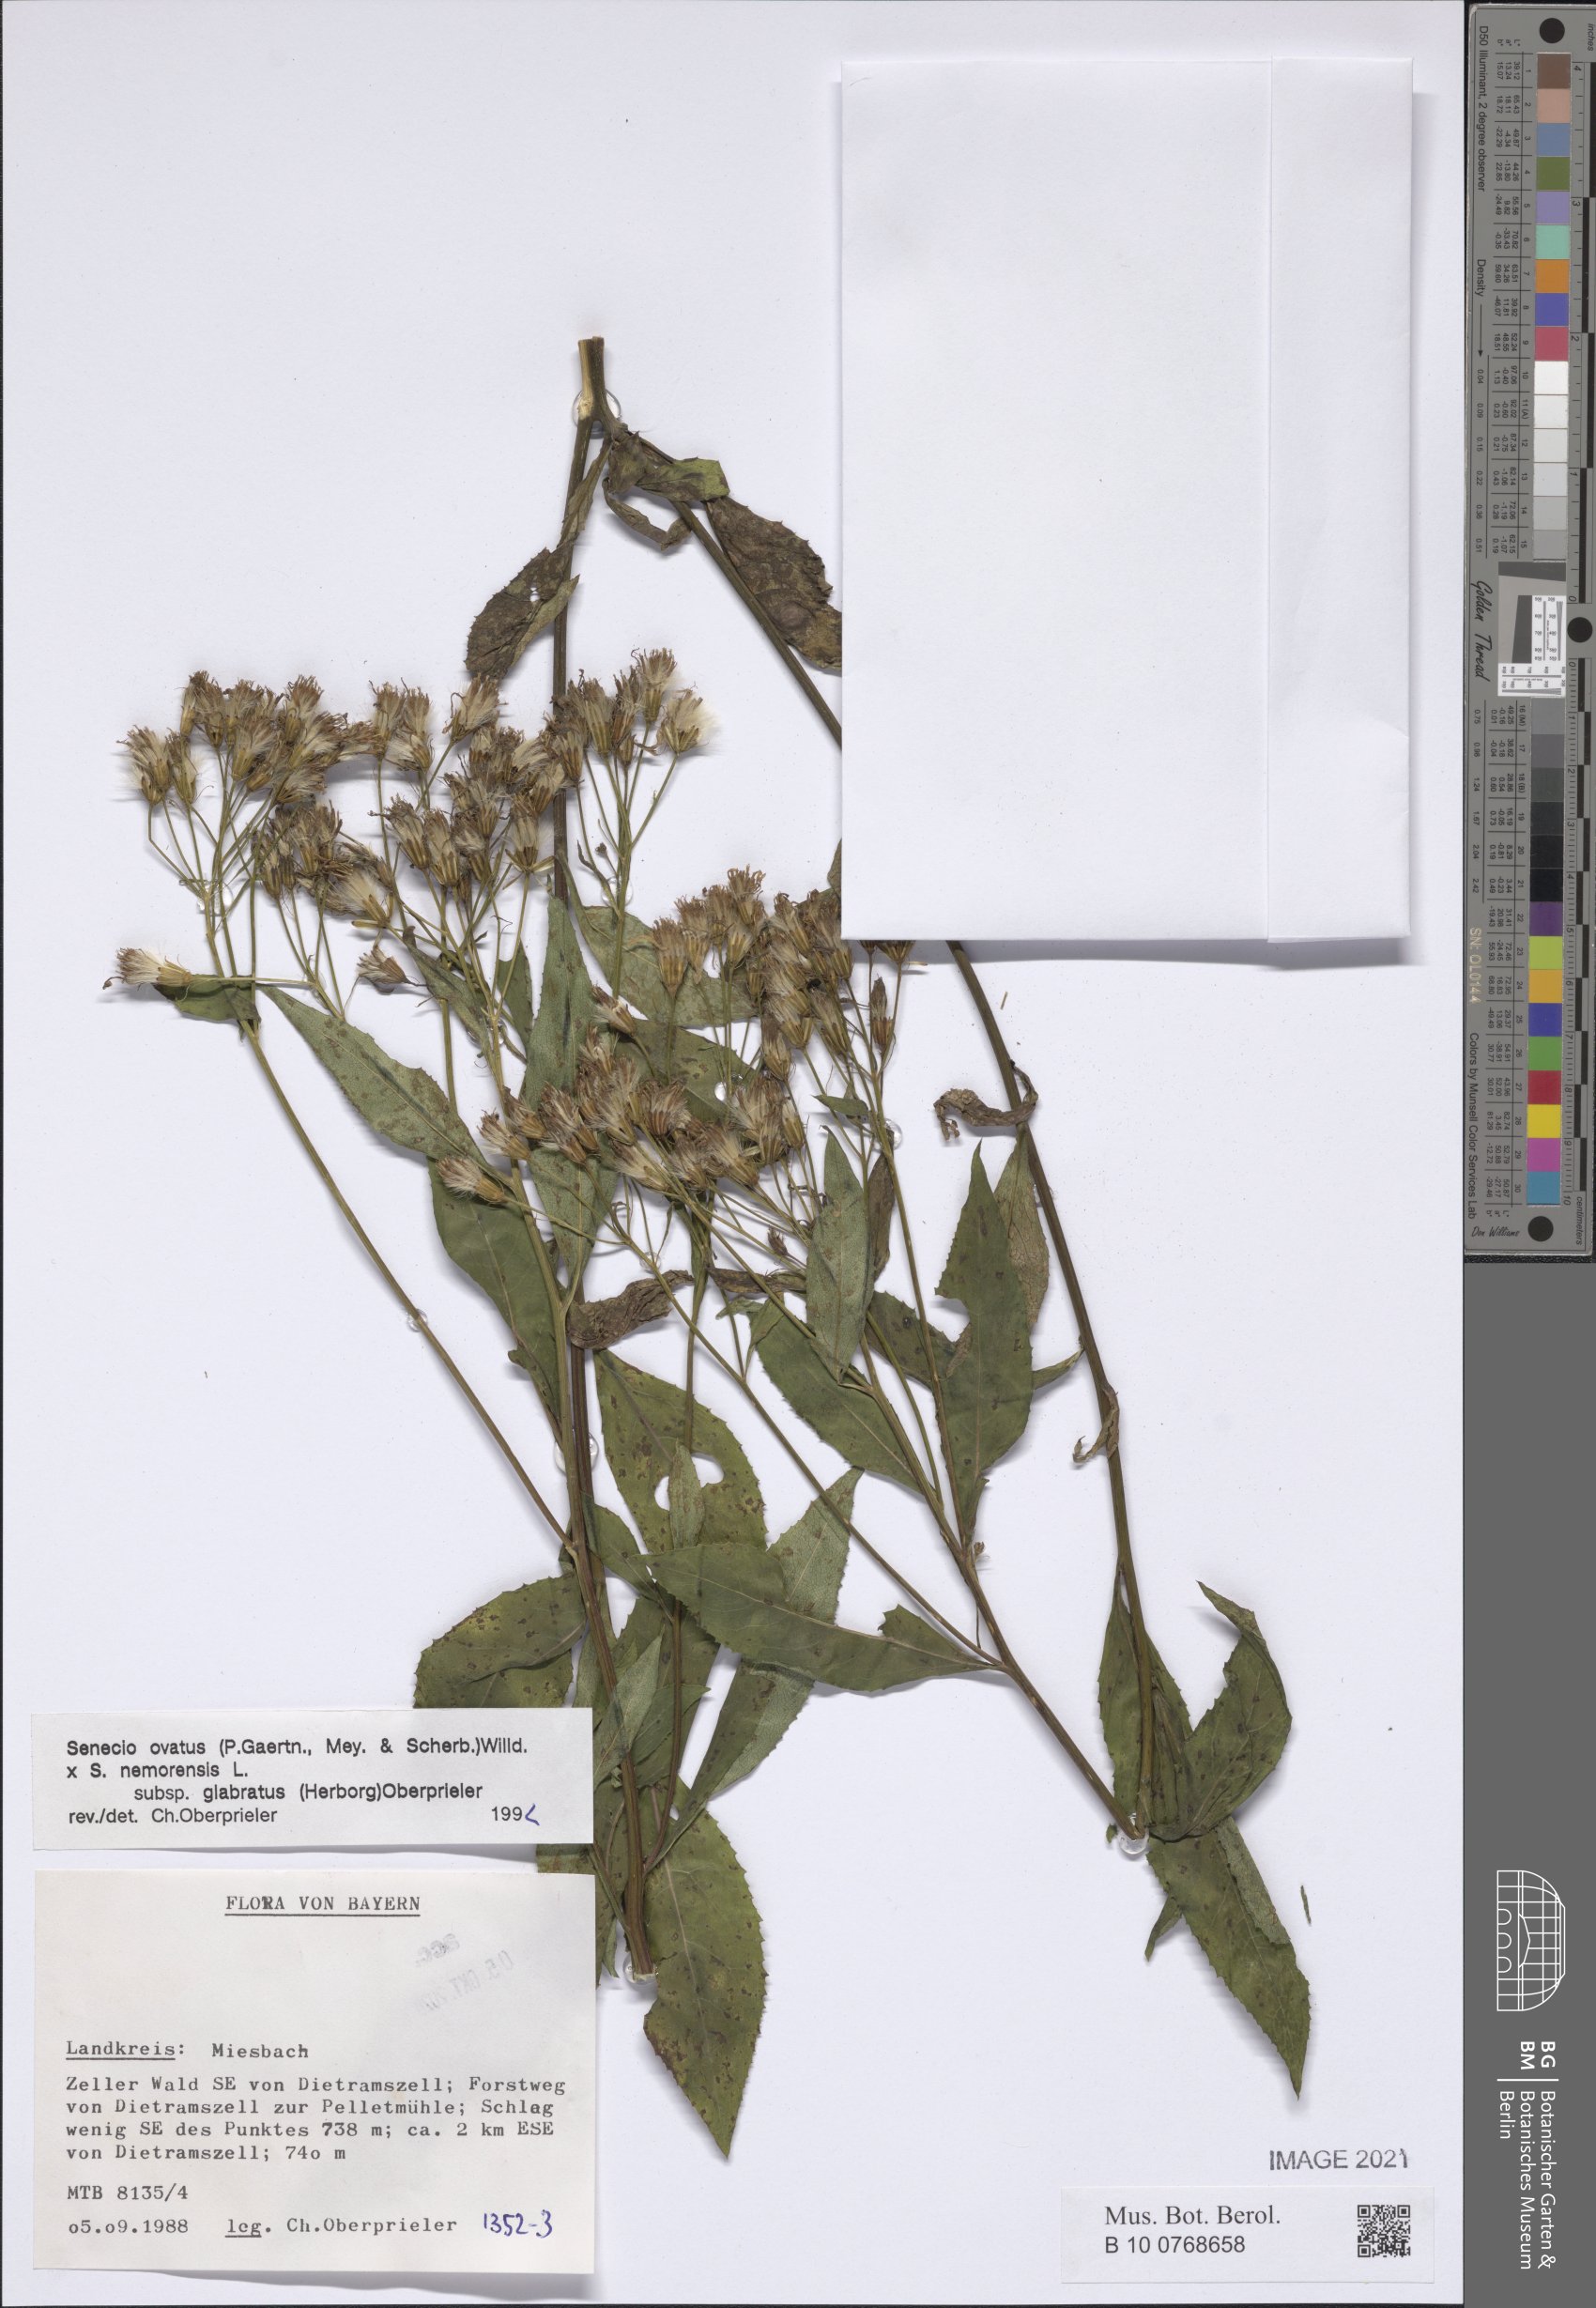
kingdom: Plantae
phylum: Tracheophyta
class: Magnoliopsida
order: Asterales
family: Asteraceae
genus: Senecio
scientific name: Senecio ovatus
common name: Wood ragwort
